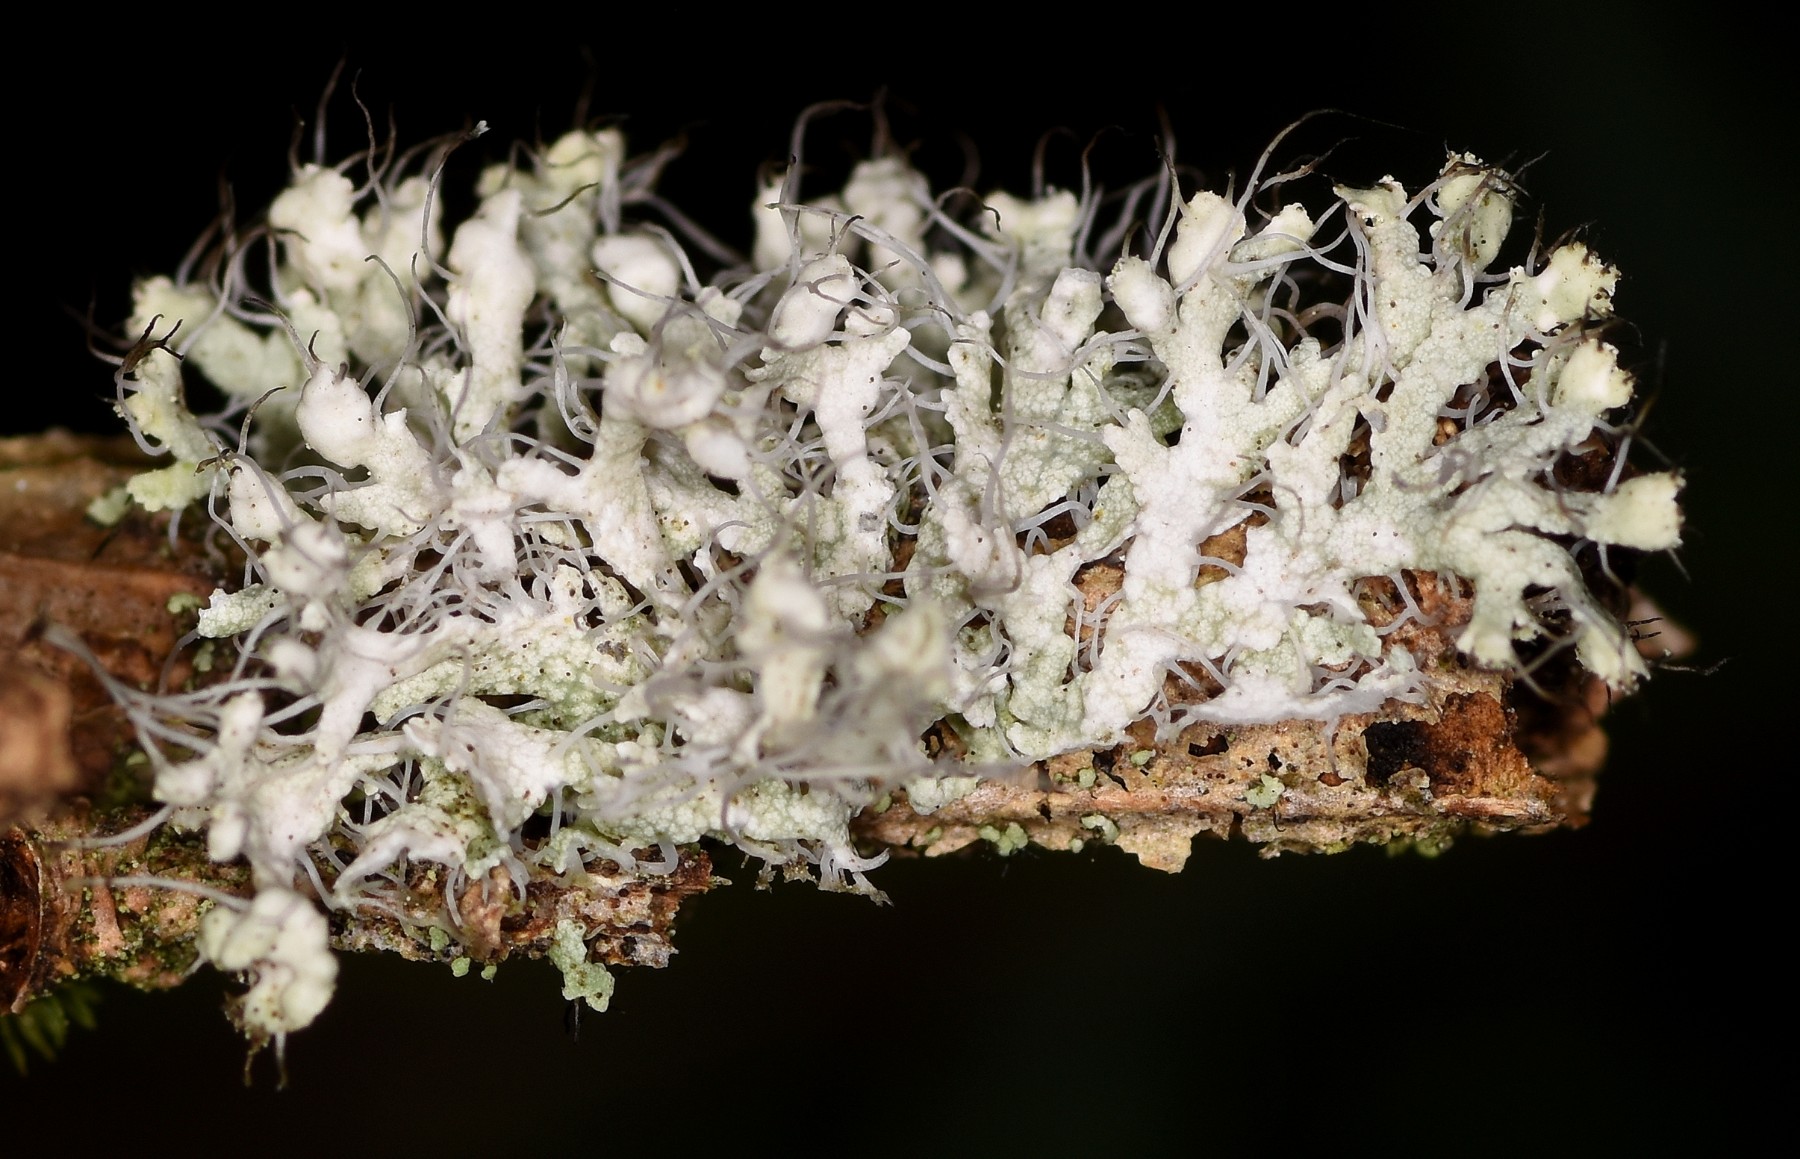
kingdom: Fungi
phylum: Ascomycota
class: Lecanoromycetes
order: Caliciales
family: Physciaceae
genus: Physcia
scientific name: Physcia adscendens
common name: hætte-rosetlav
